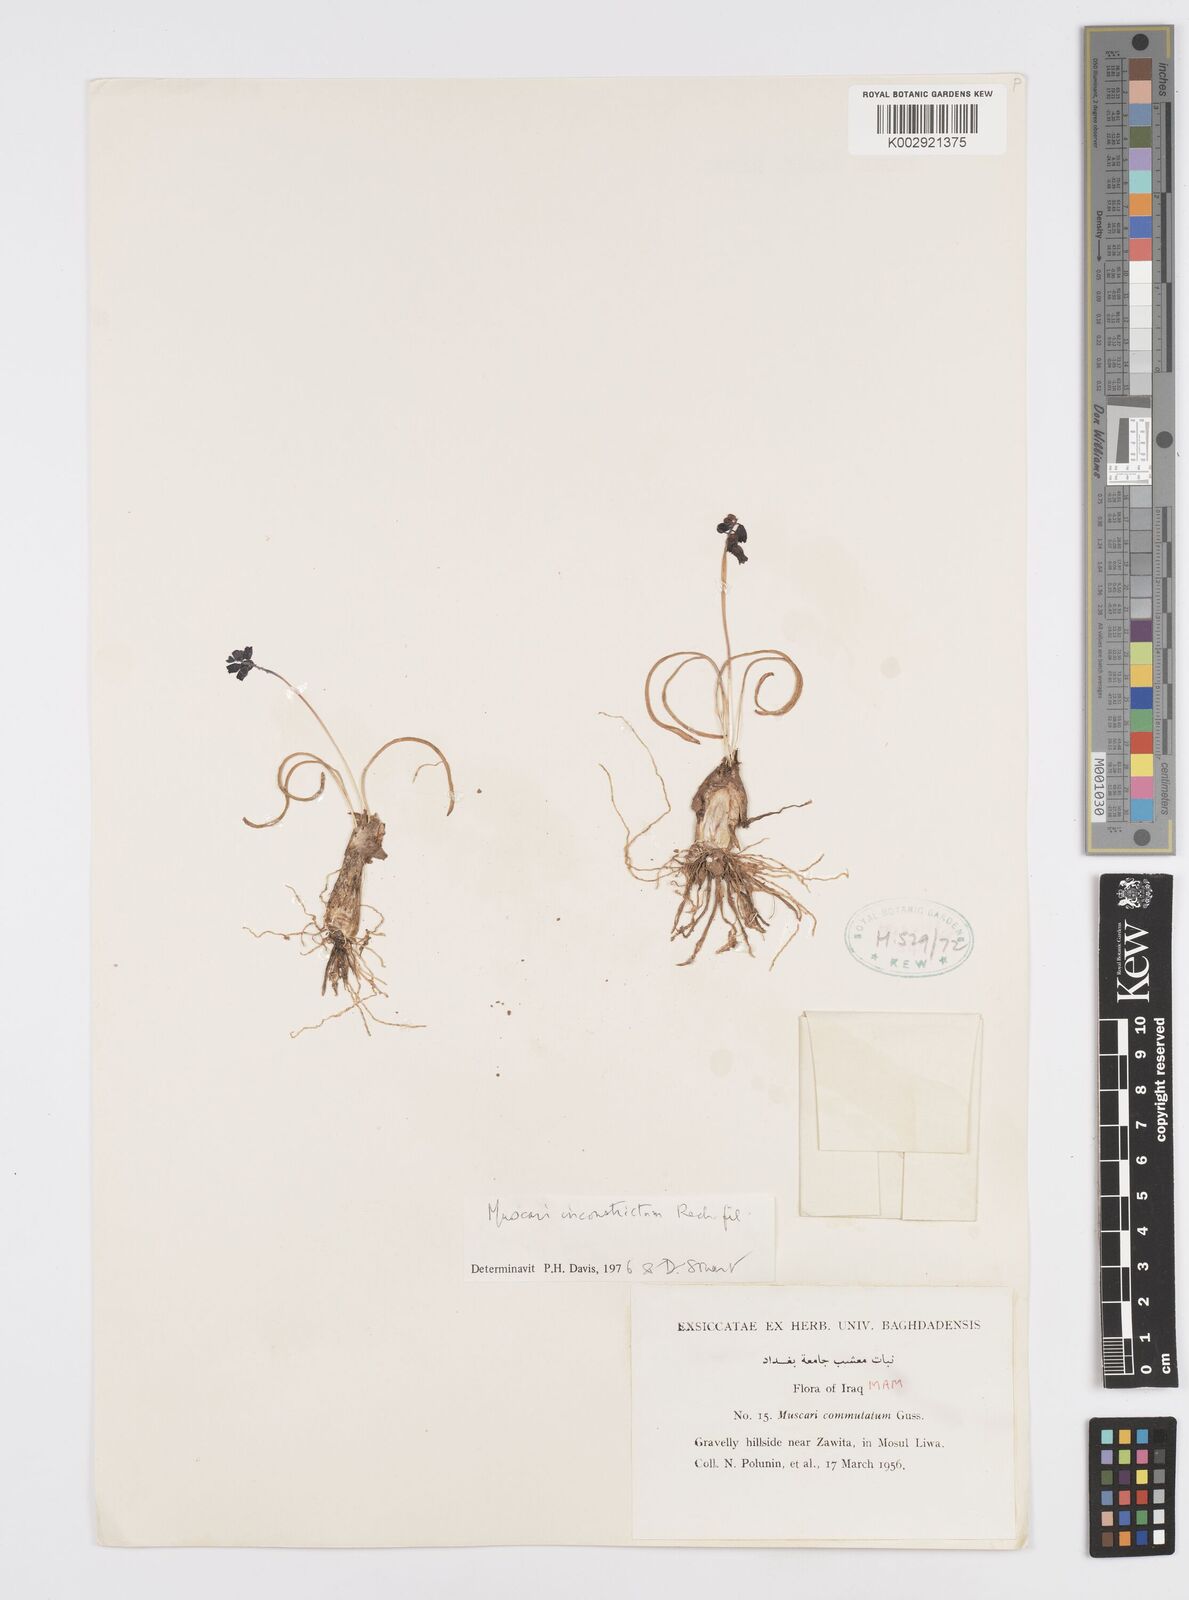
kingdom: Plantae
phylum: Tracheophyta
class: Liliopsida
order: Asparagales
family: Asparagaceae
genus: Muscari
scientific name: Muscari inconstrictum
